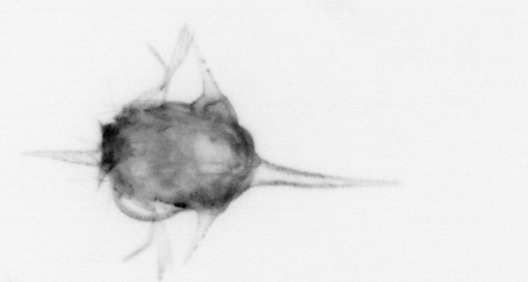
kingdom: Animalia
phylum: Arthropoda
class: Malacostraca
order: Decapoda
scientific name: Decapoda
